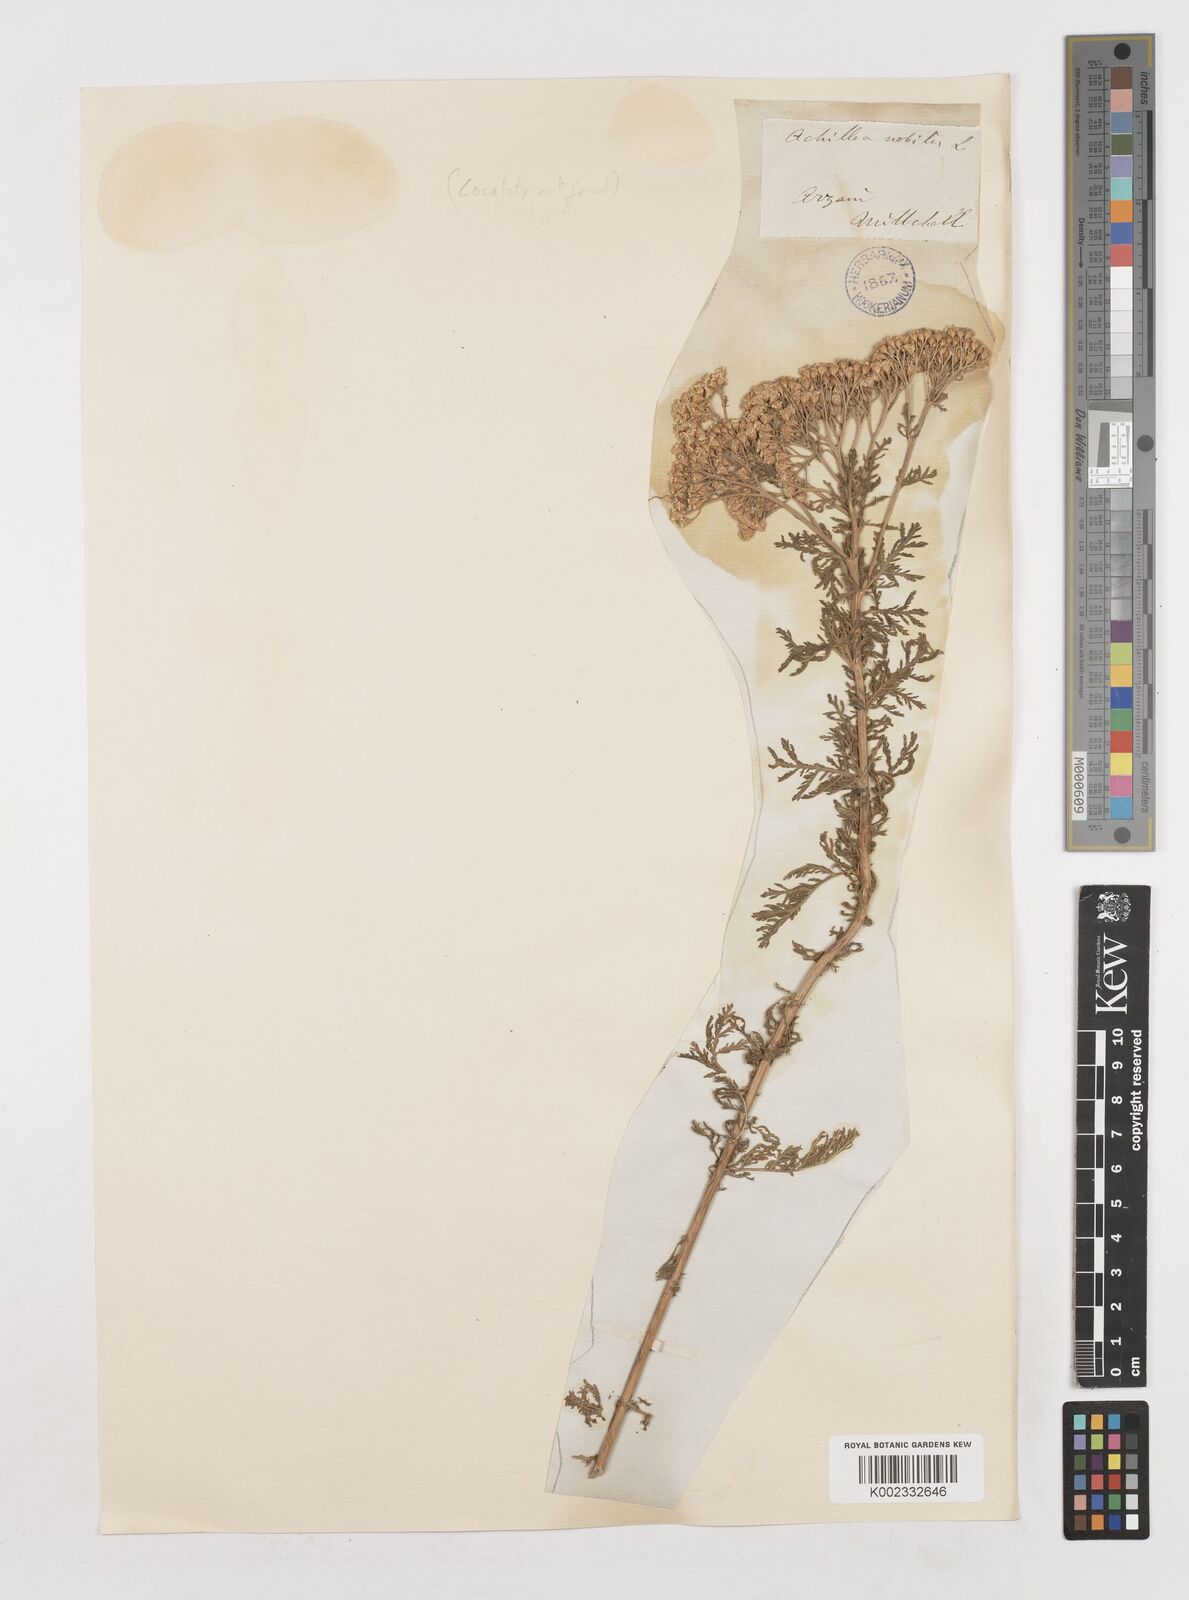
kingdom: Plantae
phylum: Tracheophyta
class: Magnoliopsida
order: Asterales
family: Asteraceae
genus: Achillea
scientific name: Achillea nobilis
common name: Noble yarrow
